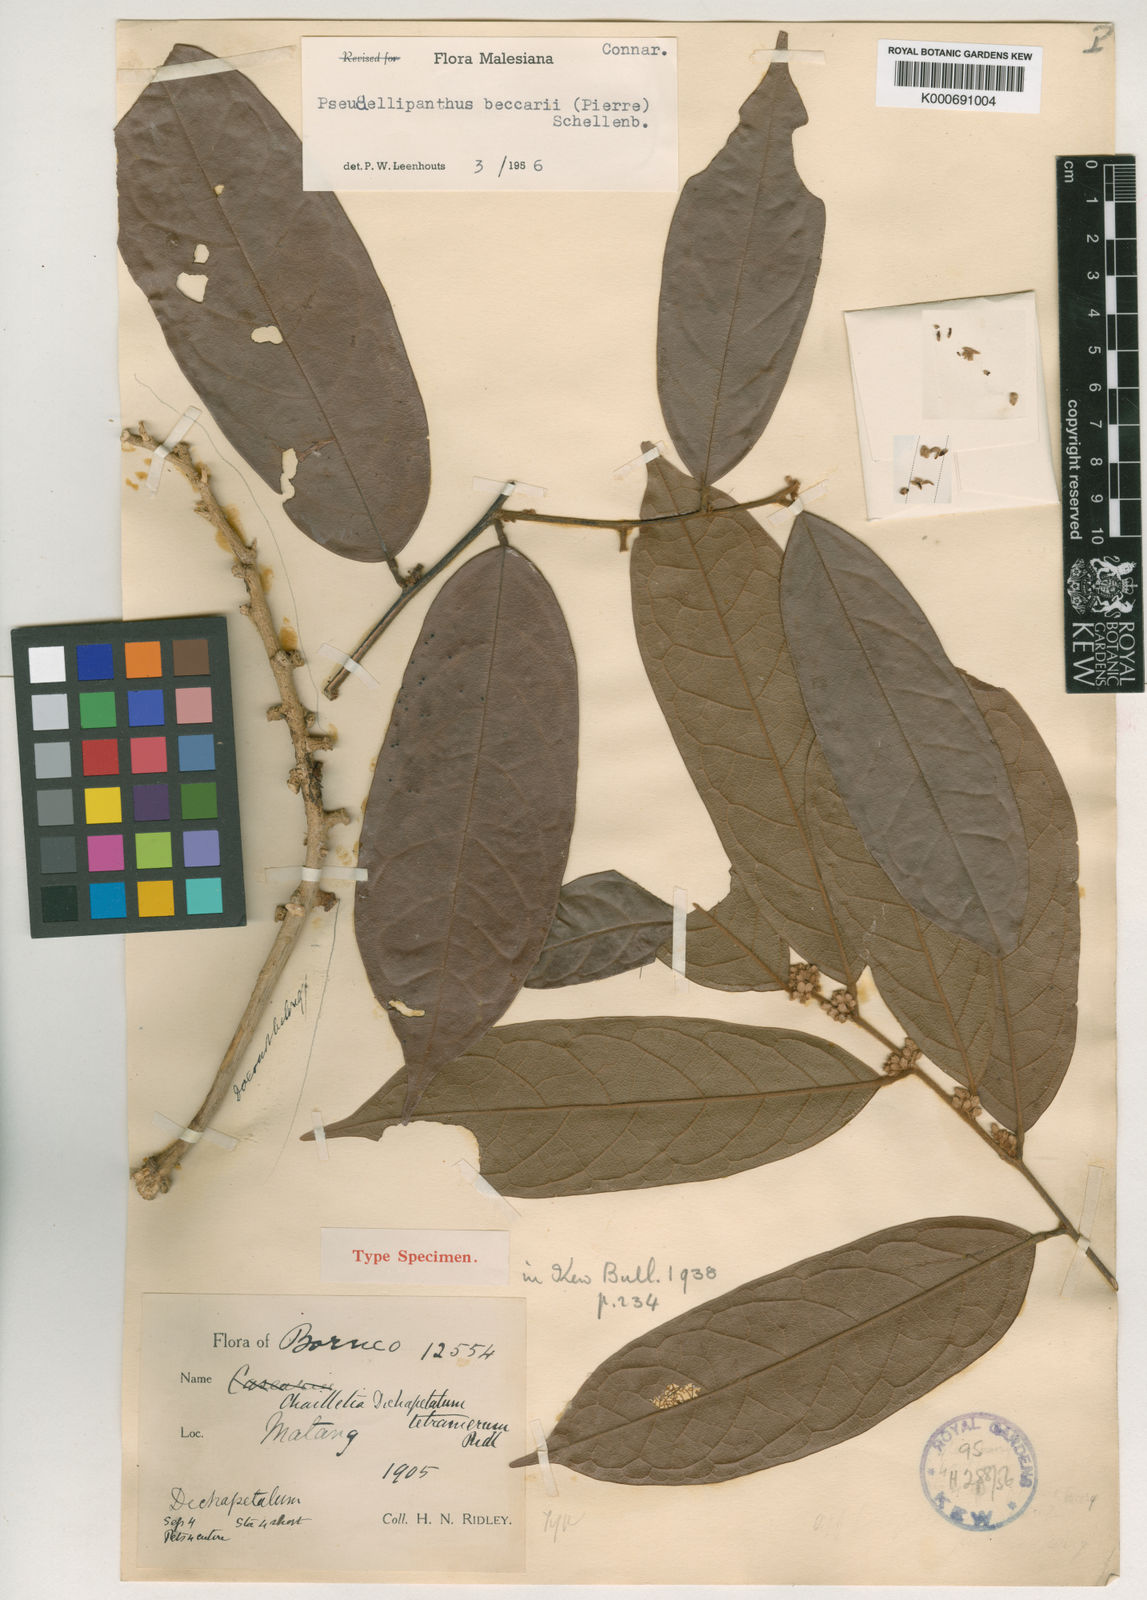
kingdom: Plantae
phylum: Tracheophyta
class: Magnoliopsida
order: Oxalidales
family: Connaraceae
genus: Ellipanthus
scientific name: Ellipanthus beccarii
